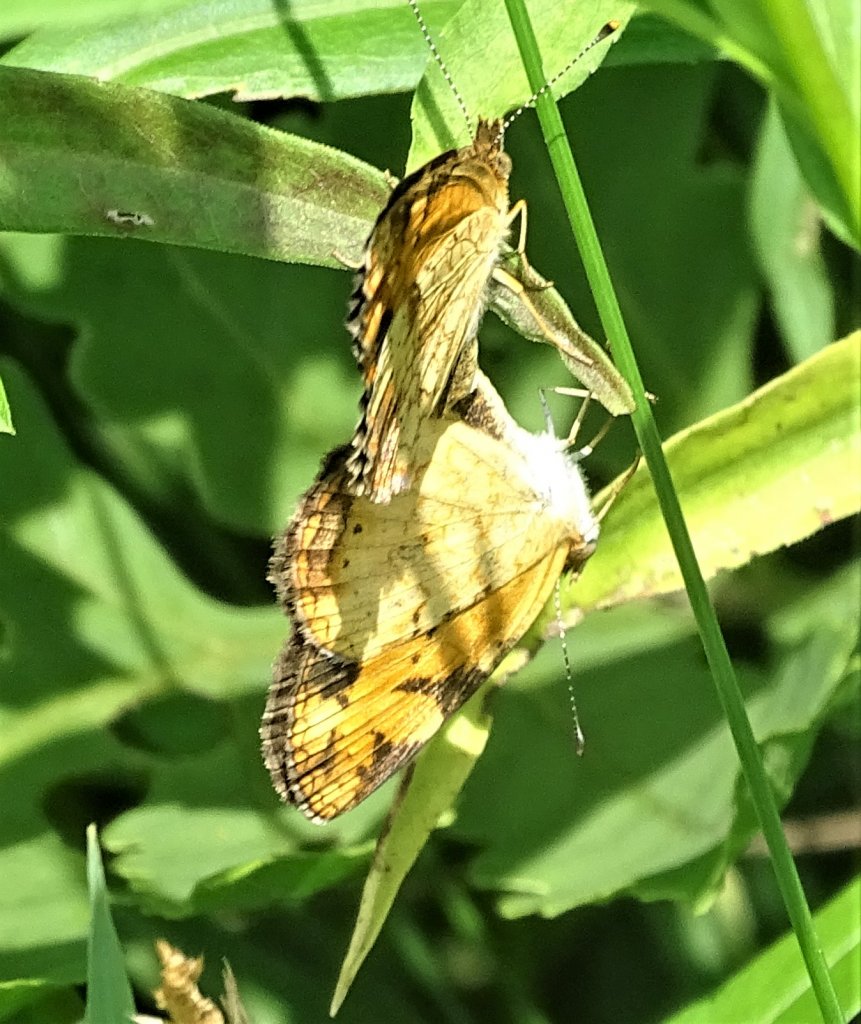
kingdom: Animalia
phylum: Arthropoda
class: Insecta
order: Lepidoptera
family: Nymphalidae
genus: Phyciodes
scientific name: Phyciodes
